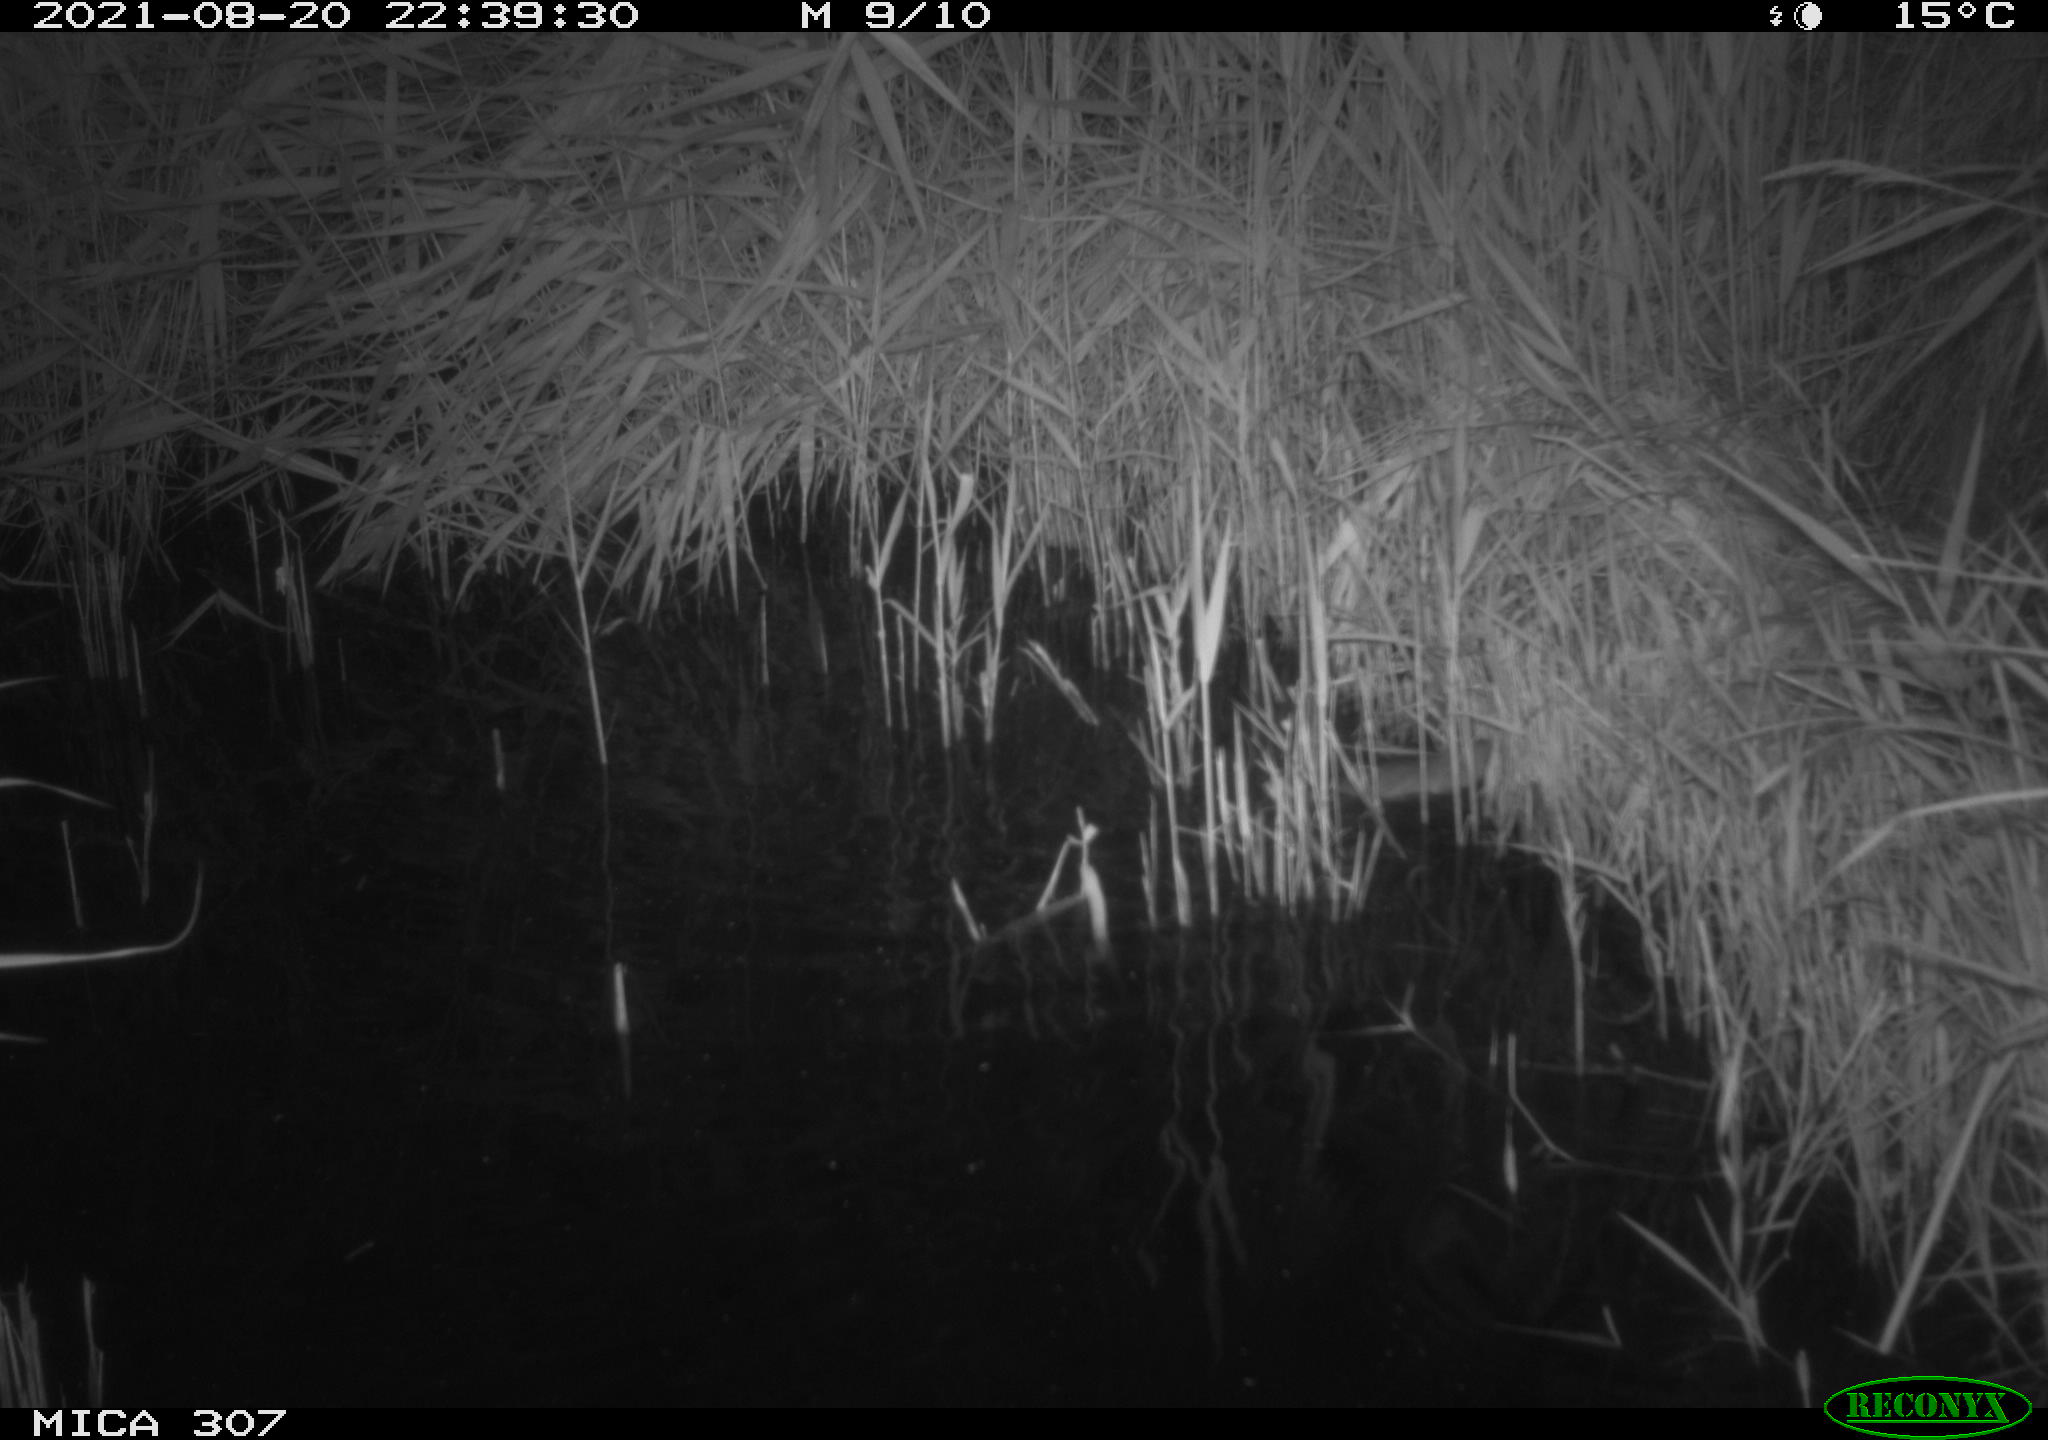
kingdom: Animalia
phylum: Chordata
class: Mammalia
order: Rodentia
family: Muridae
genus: Rattus
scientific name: Rattus norvegicus
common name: Brown rat
